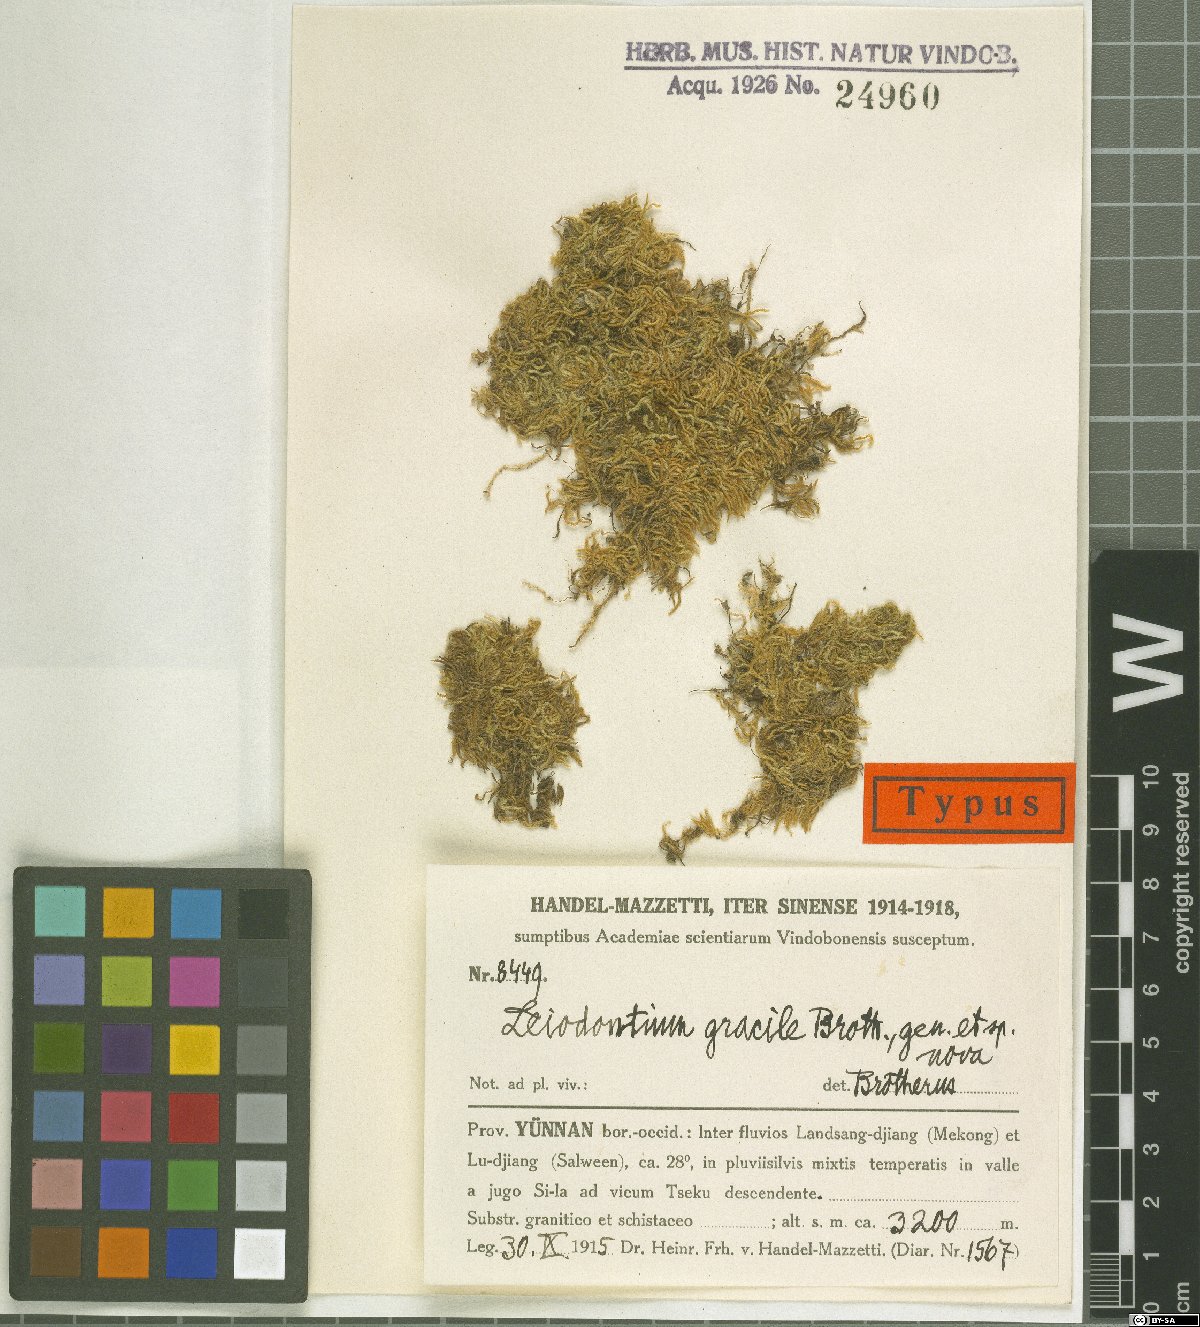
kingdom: Plantae
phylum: Bryophyta
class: Bryopsida
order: Hypnales
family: Hypnaceae
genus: Leiodontium
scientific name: Leiodontium gracile
